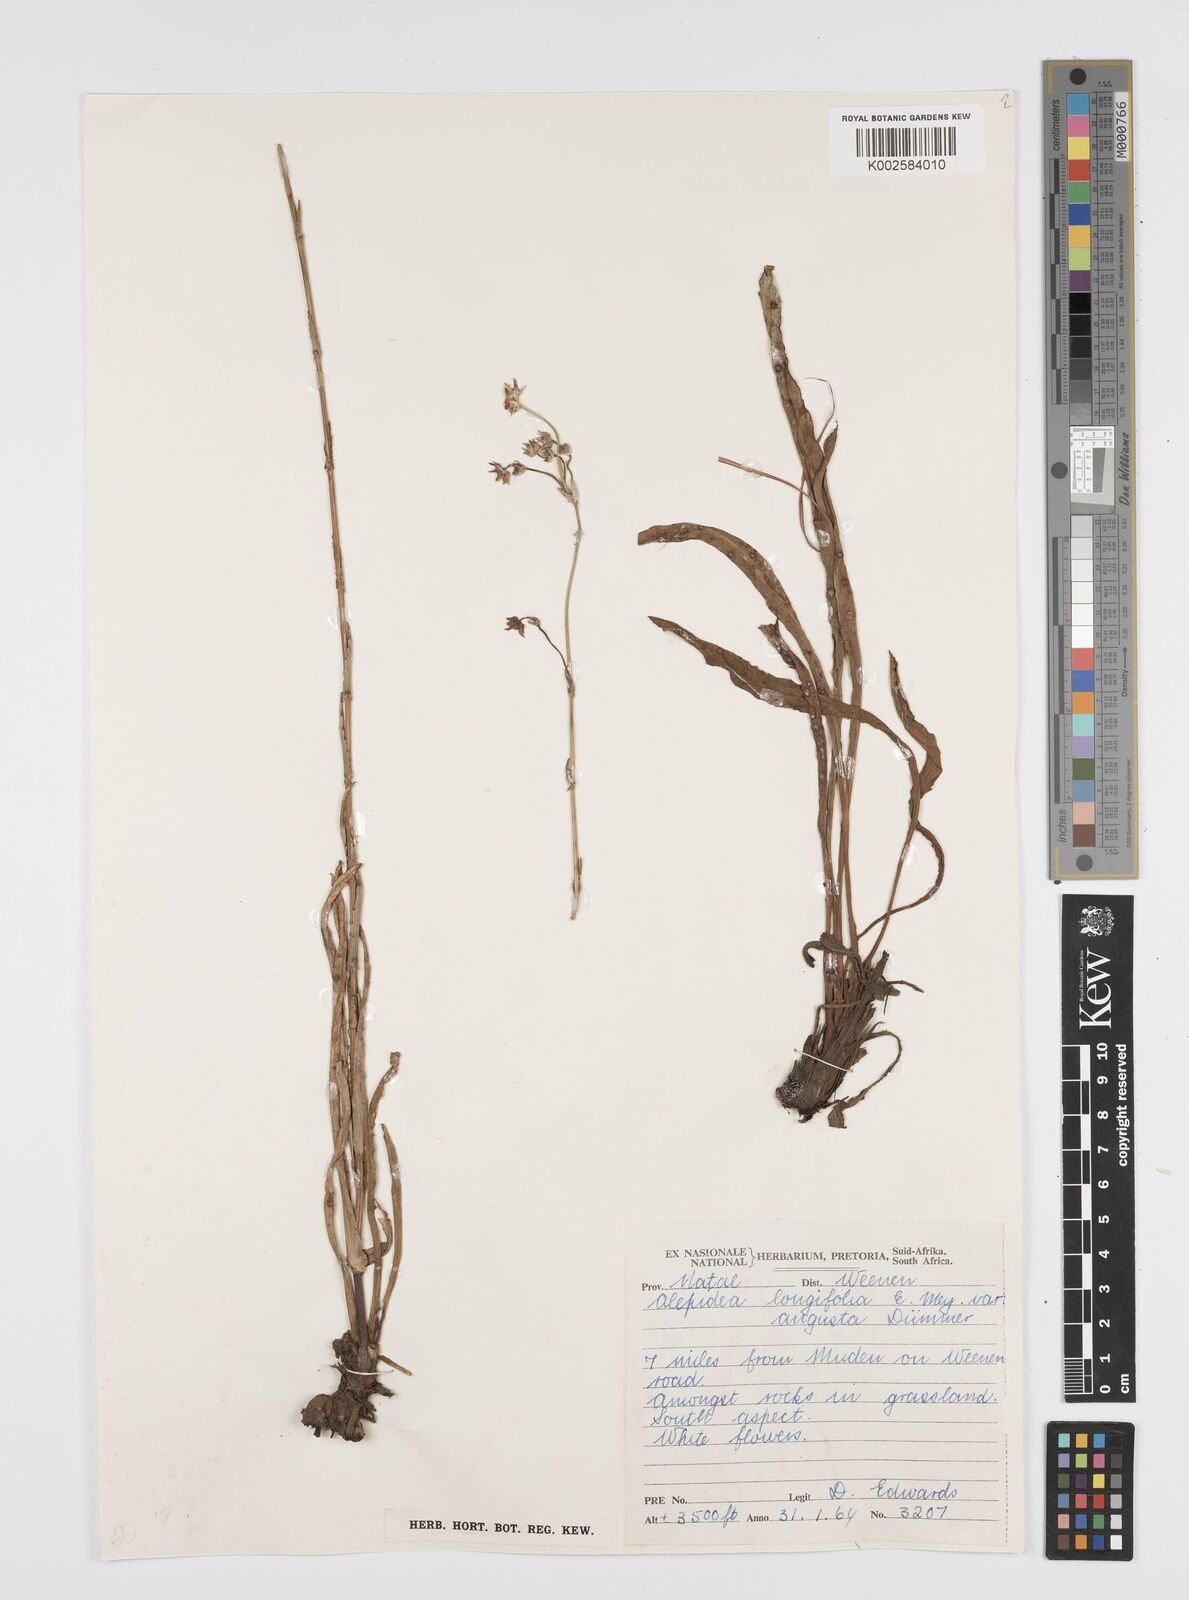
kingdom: Plantae
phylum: Tracheophyta
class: Magnoliopsida
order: Apiales
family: Apiaceae
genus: Alepidea
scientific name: Alepidea
